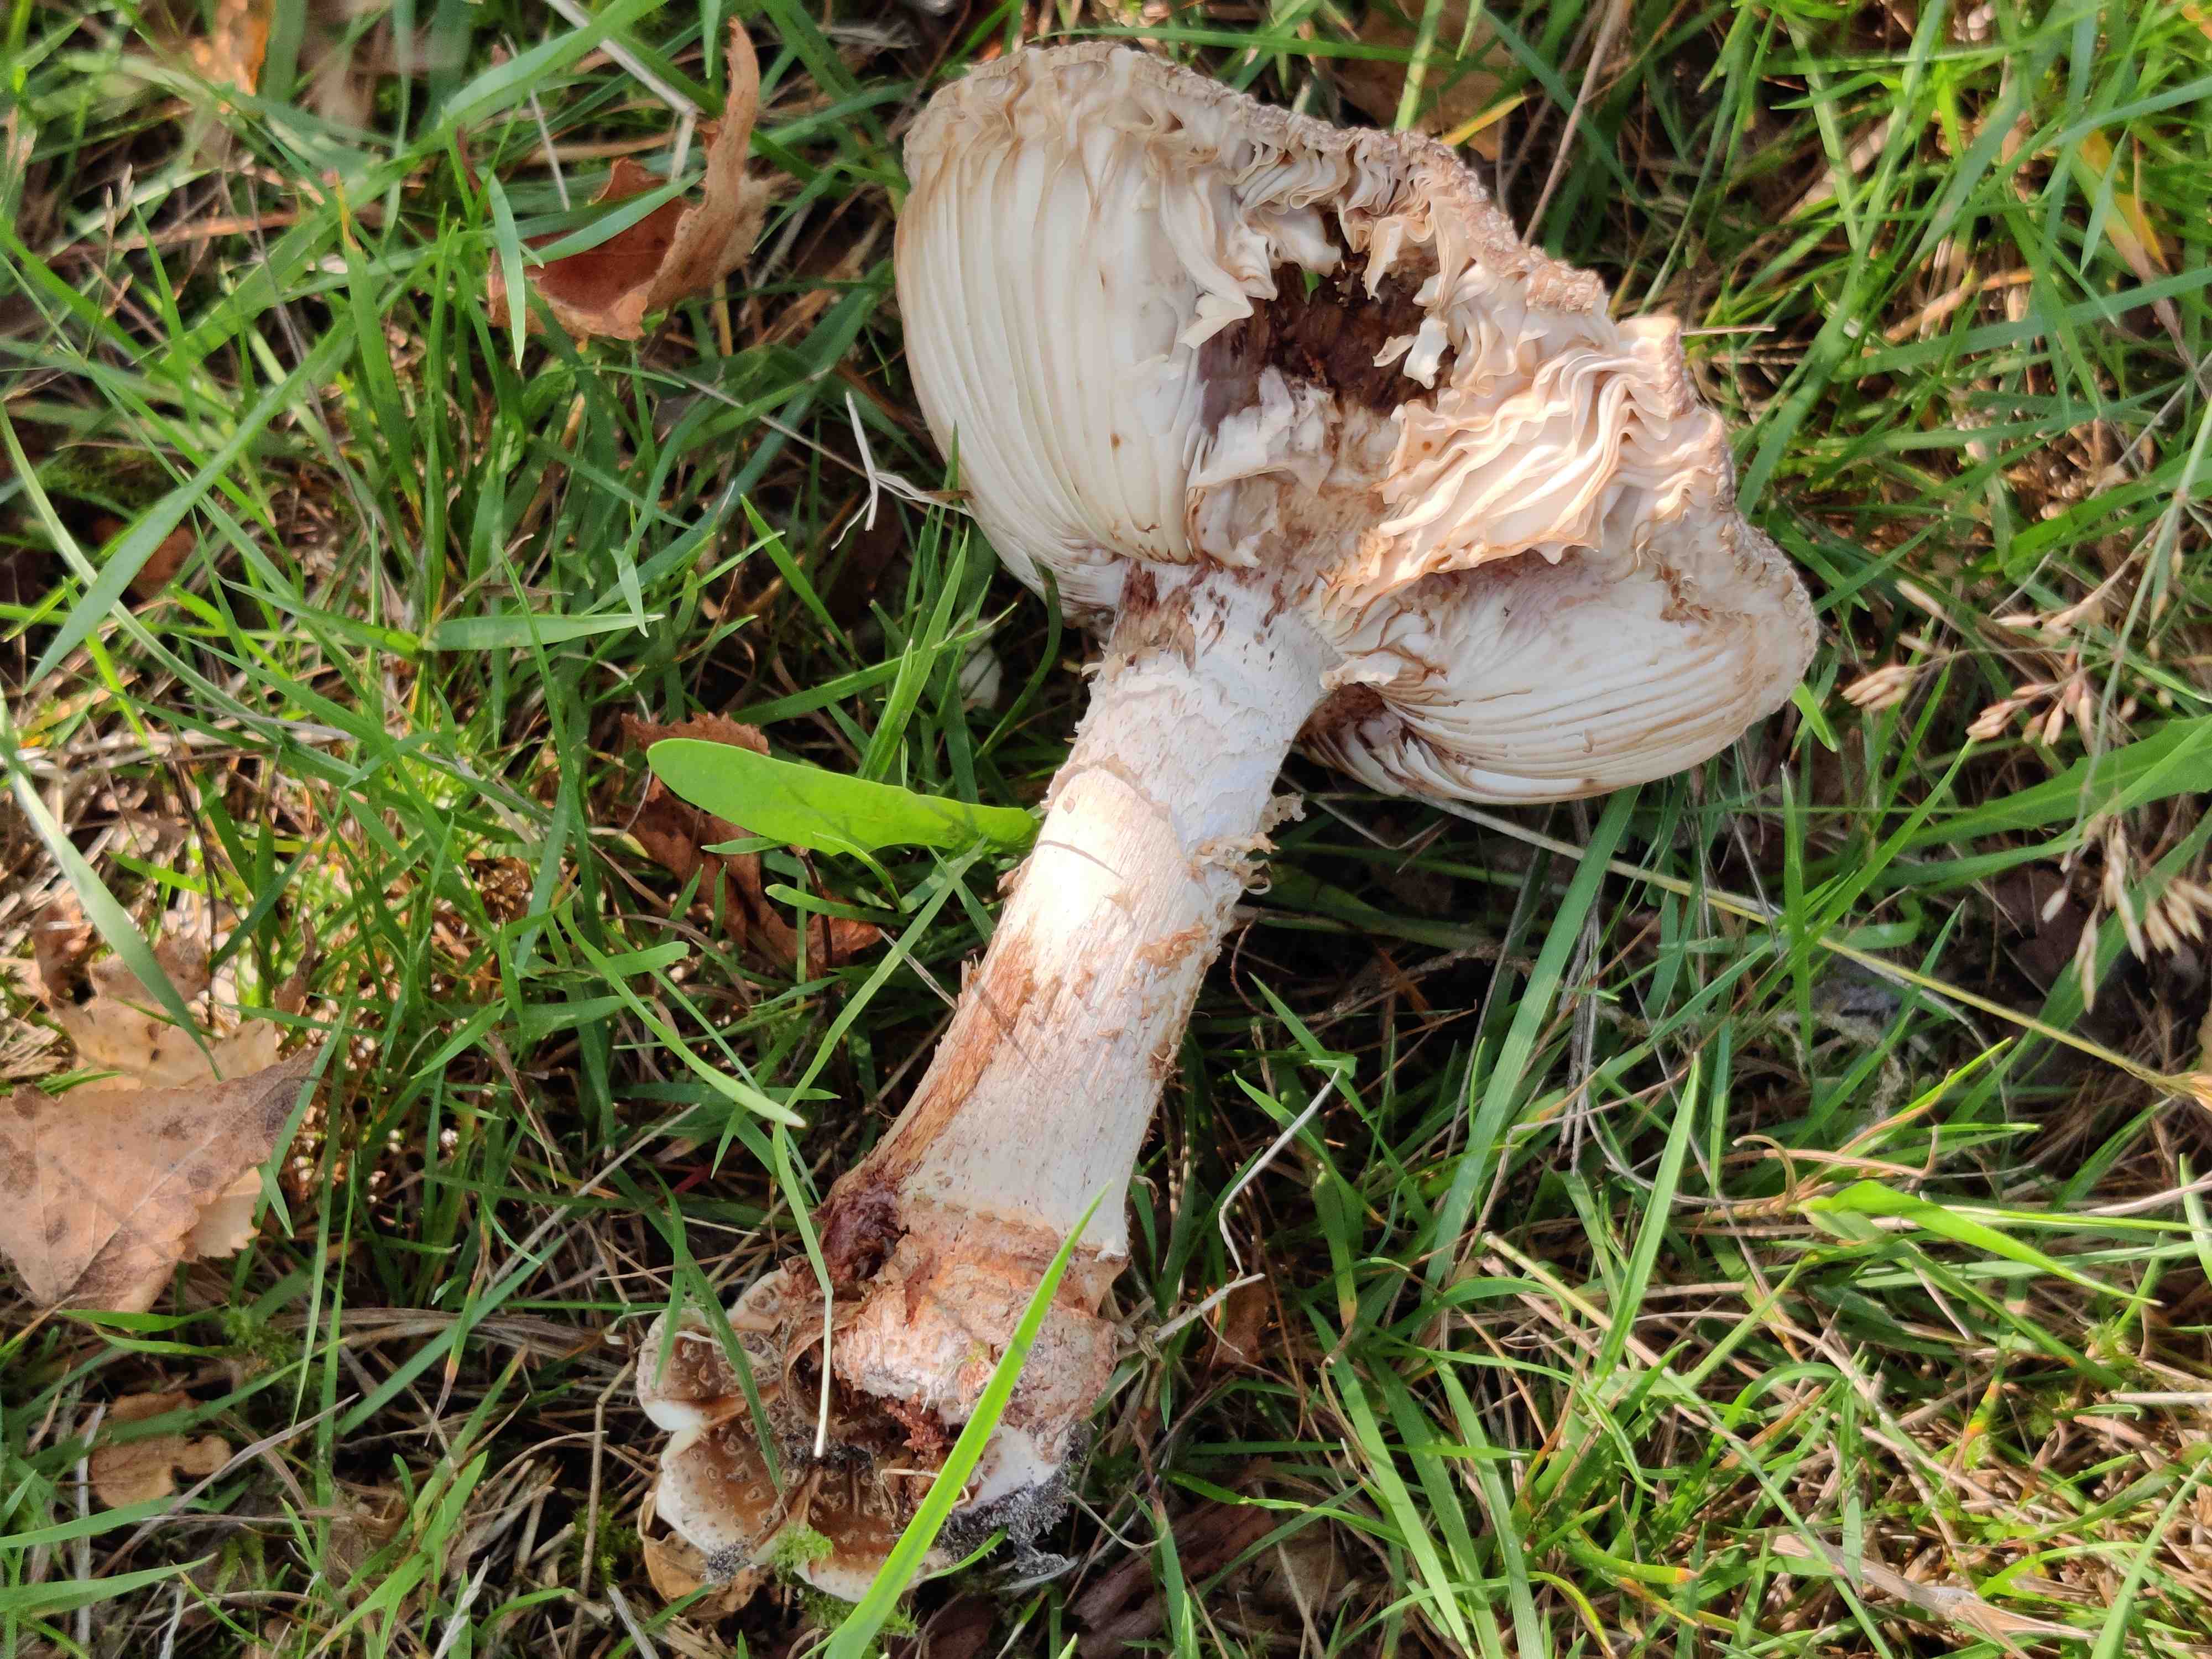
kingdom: Fungi
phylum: Basidiomycota
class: Agaricomycetes
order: Agaricales
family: Amanitaceae
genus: Amanita
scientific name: Amanita rubescens
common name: rødmende fluesvamp
